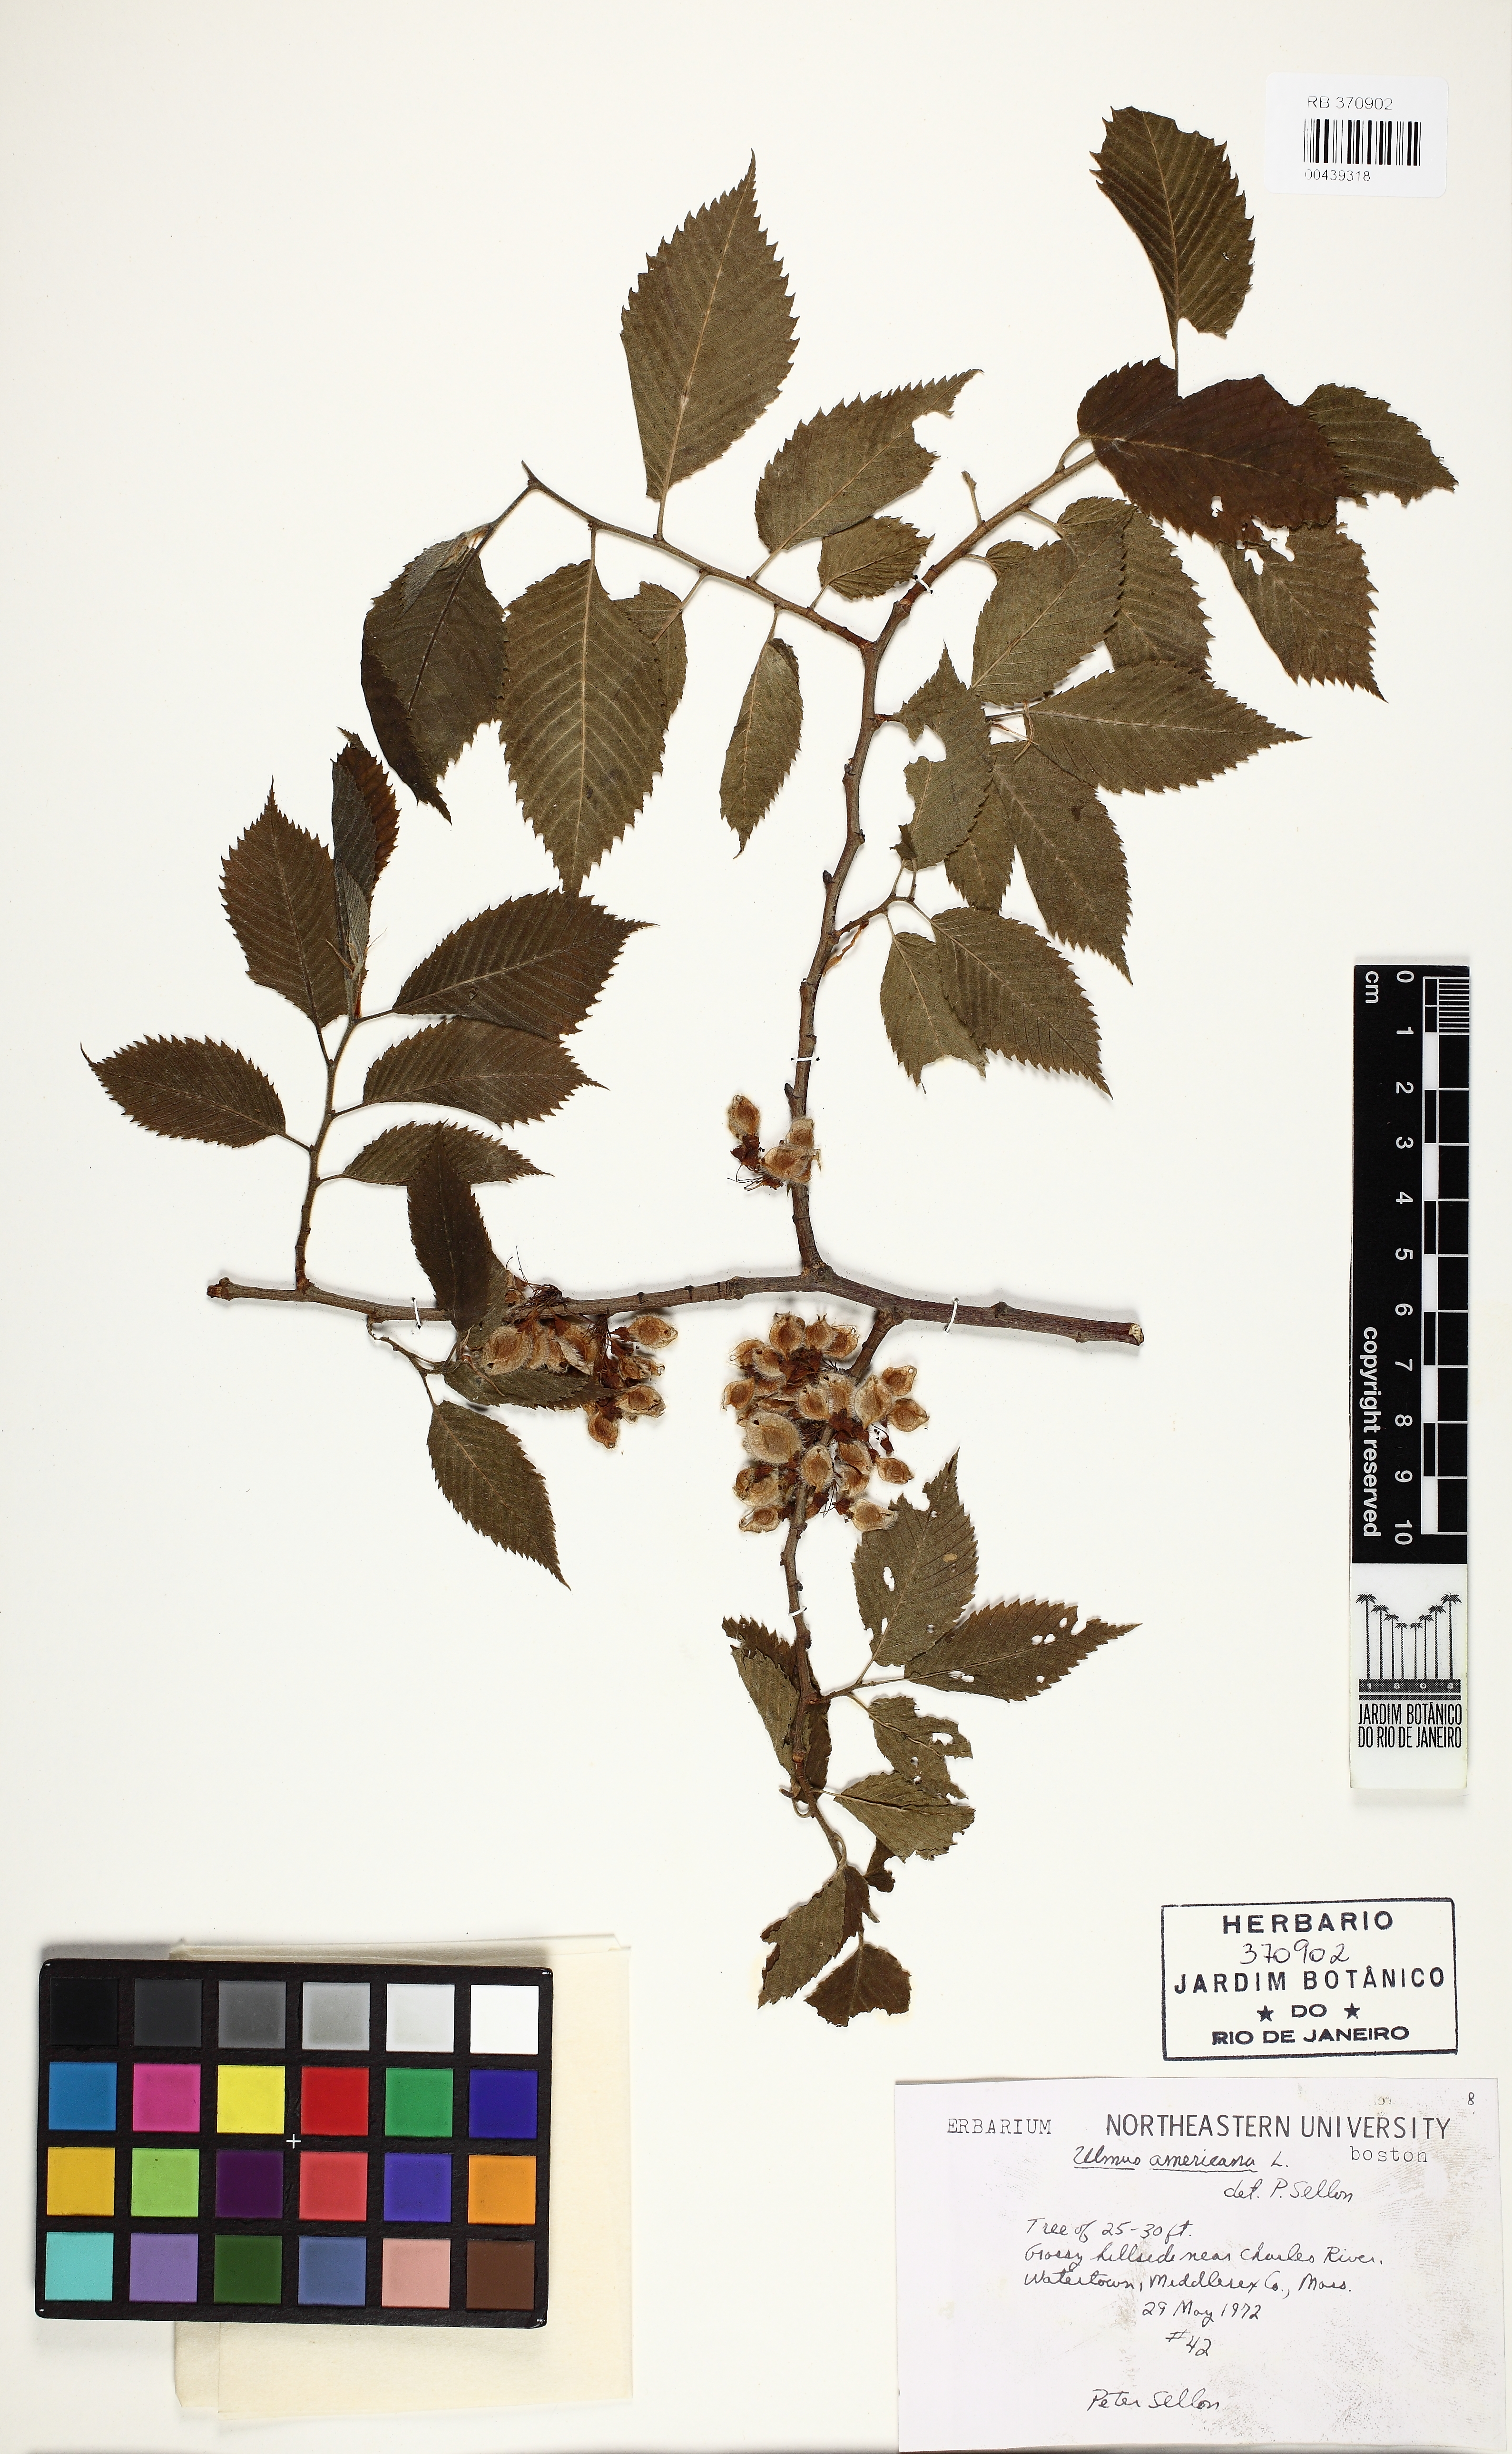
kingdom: Plantae
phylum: Tracheophyta
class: Magnoliopsida
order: Rosales
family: Ulmaceae
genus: Ulmus
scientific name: Ulmus americana
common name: American elm
